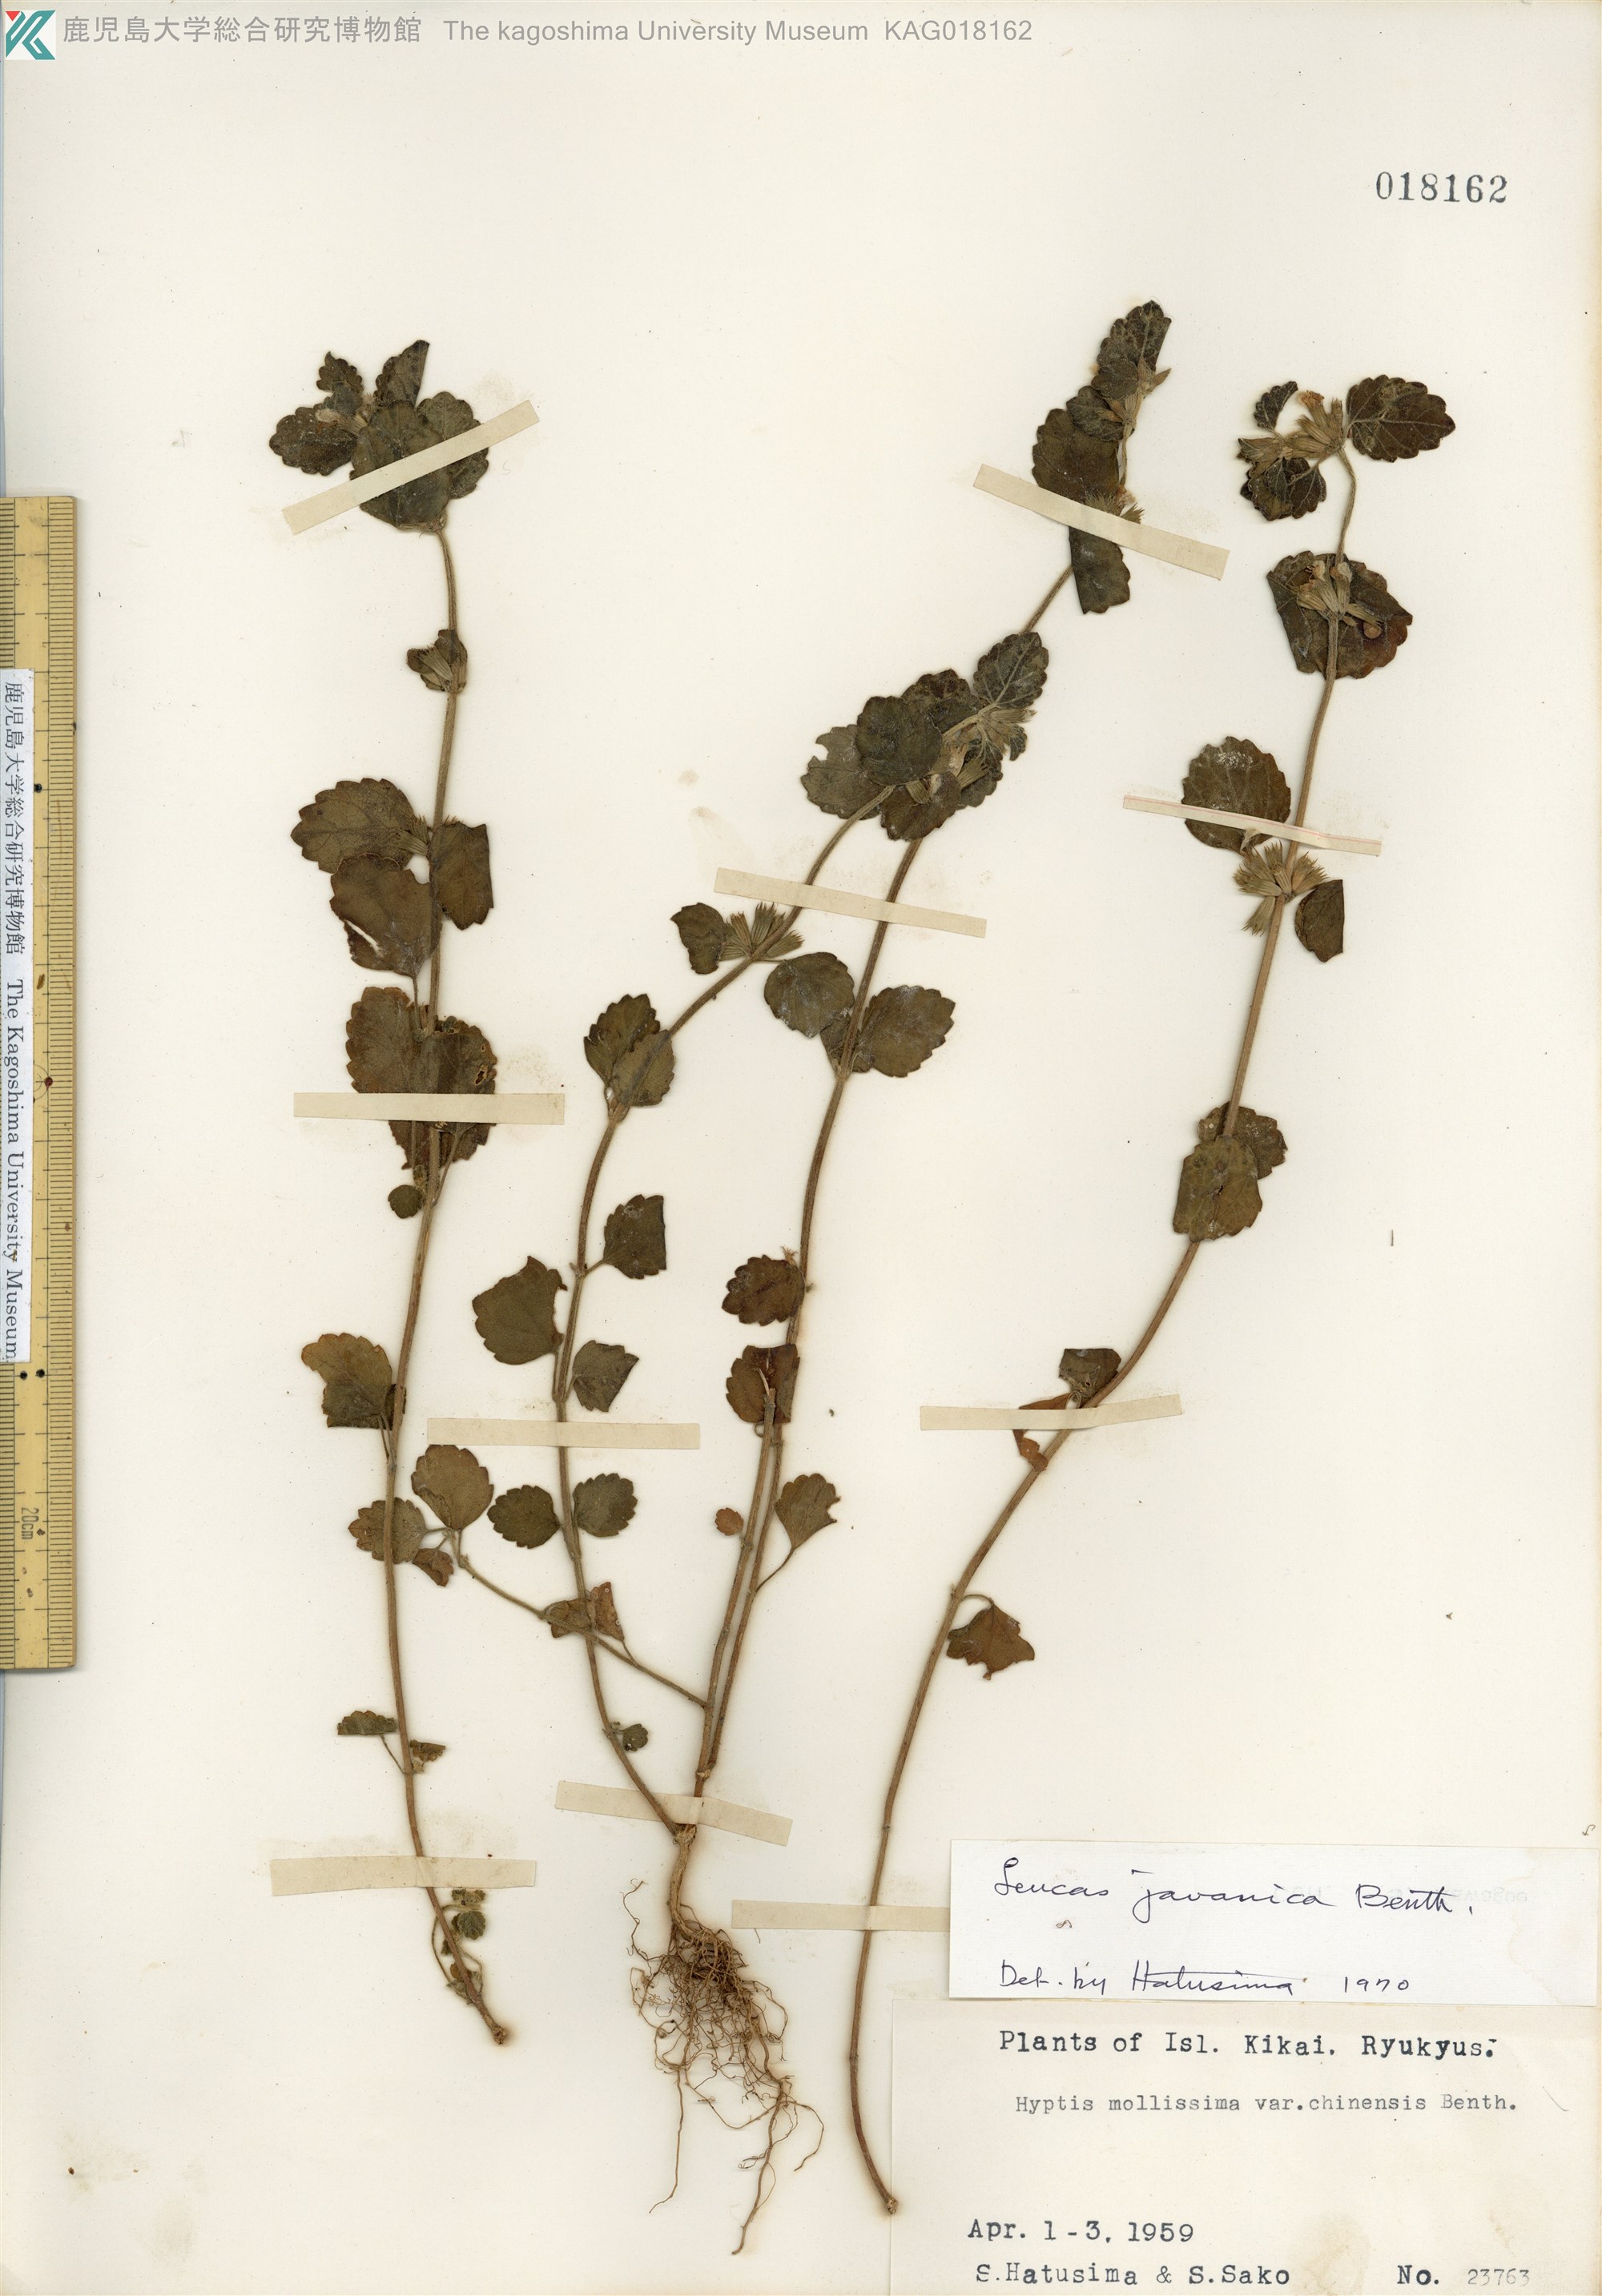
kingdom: Plantae
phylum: Tracheophyta
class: Magnoliopsida
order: Lamiales
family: Lamiaceae
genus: Leucas
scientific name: Leucas chinensis
